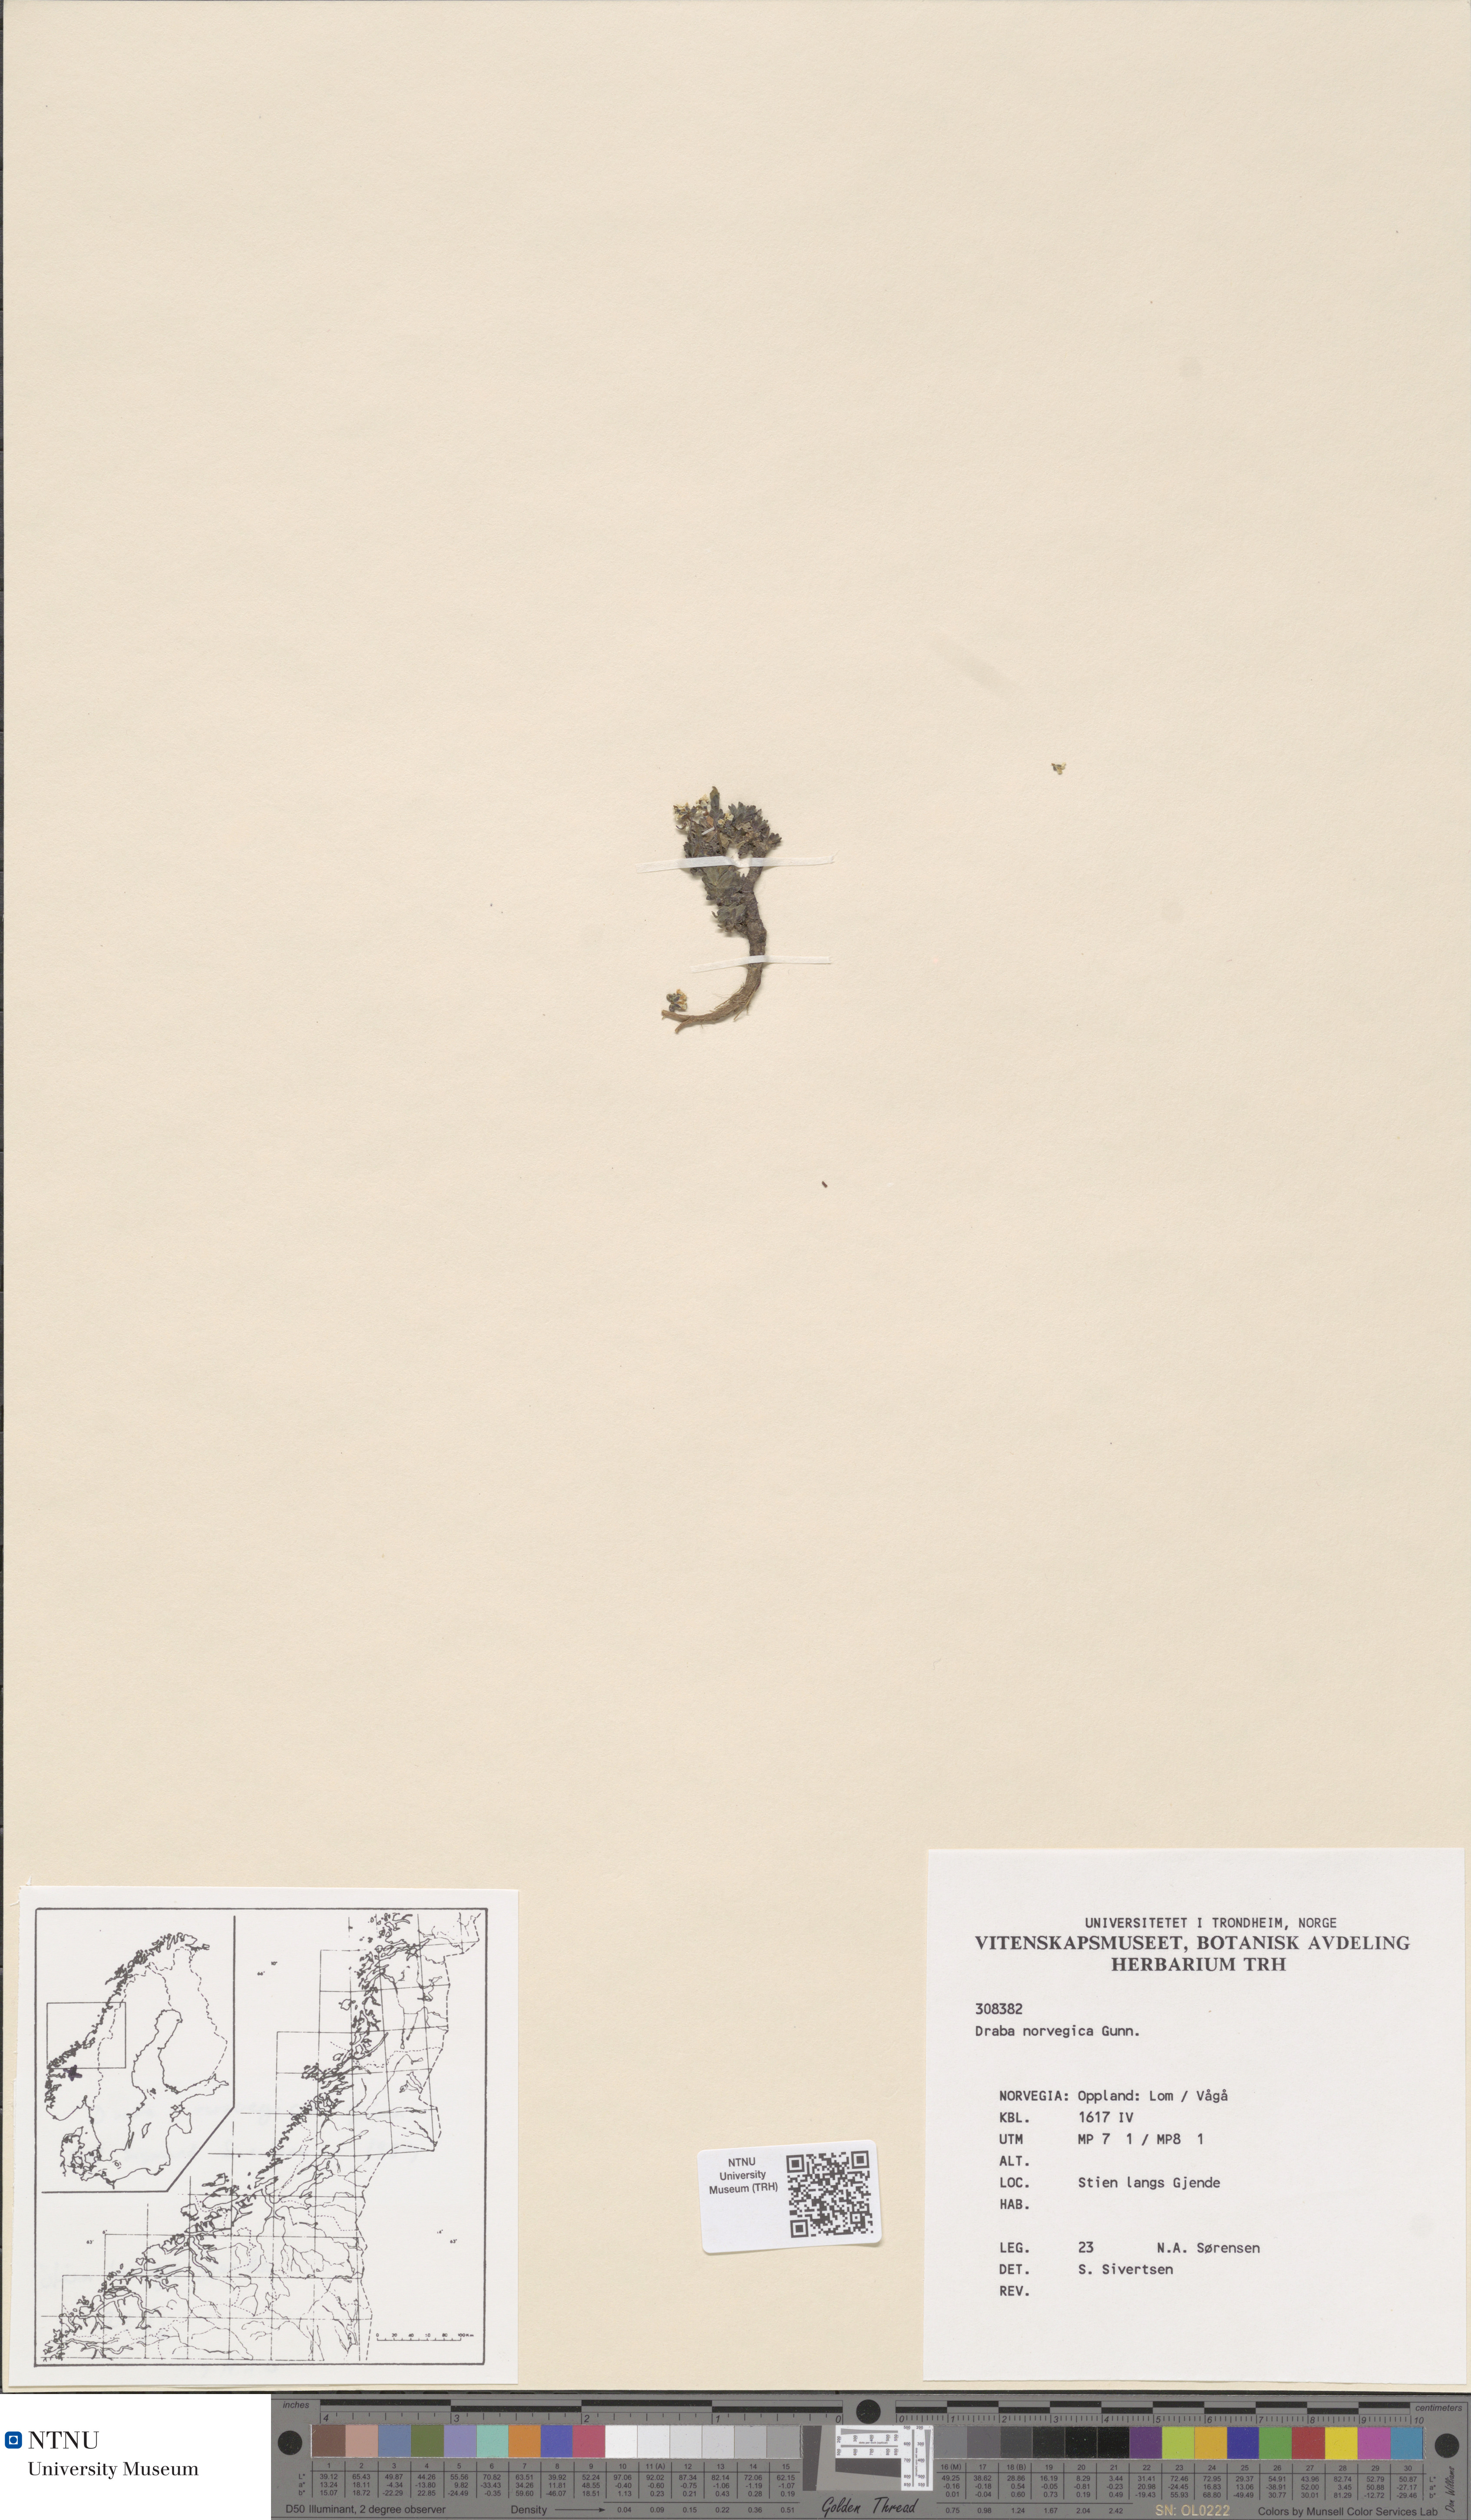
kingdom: Plantae
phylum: Tracheophyta
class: Magnoliopsida
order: Brassicales
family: Brassicaceae
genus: Draba
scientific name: Draba norvegica
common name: Rock whitlowgrass
